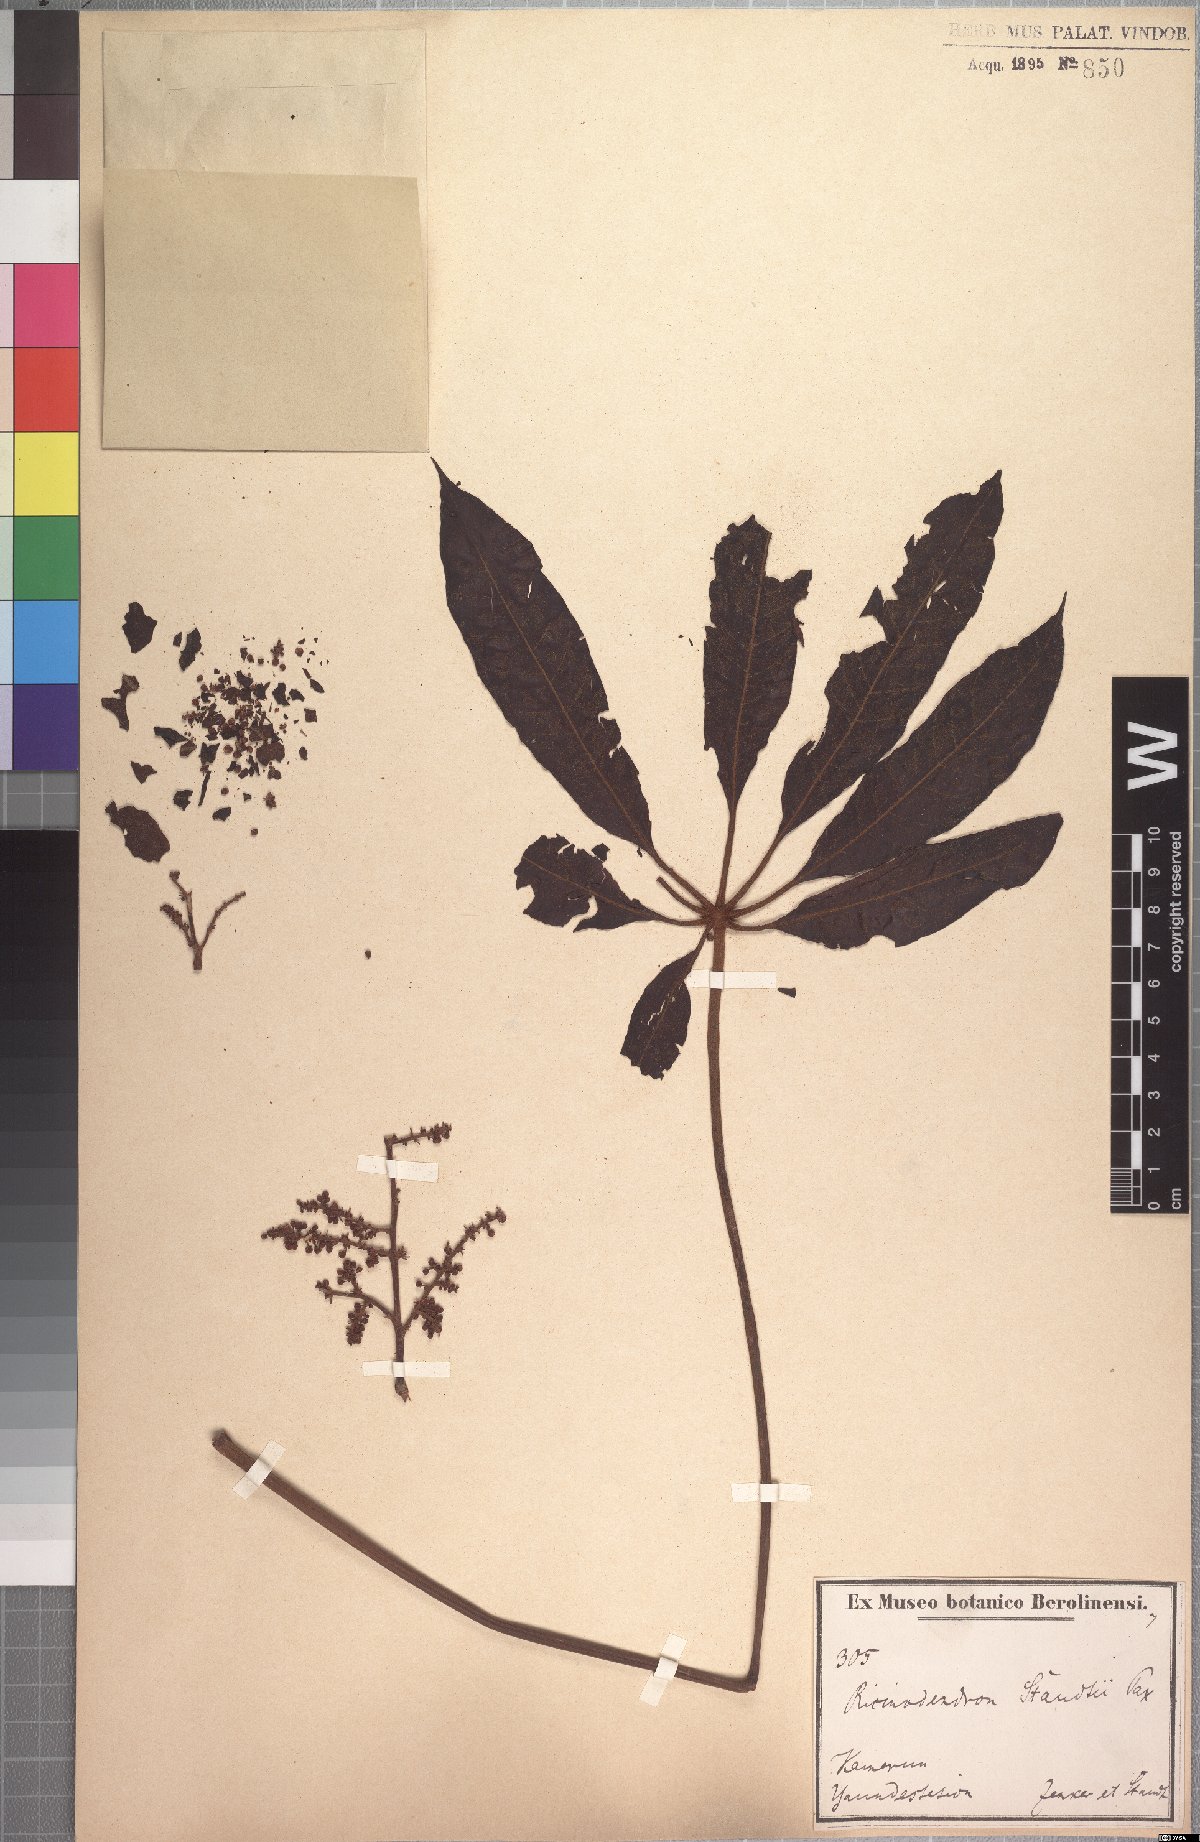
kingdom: Plantae
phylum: Tracheophyta
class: Magnoliopsida
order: Sapindales
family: Anacardiaceae
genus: Lannea
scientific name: Lannea welwitschii
